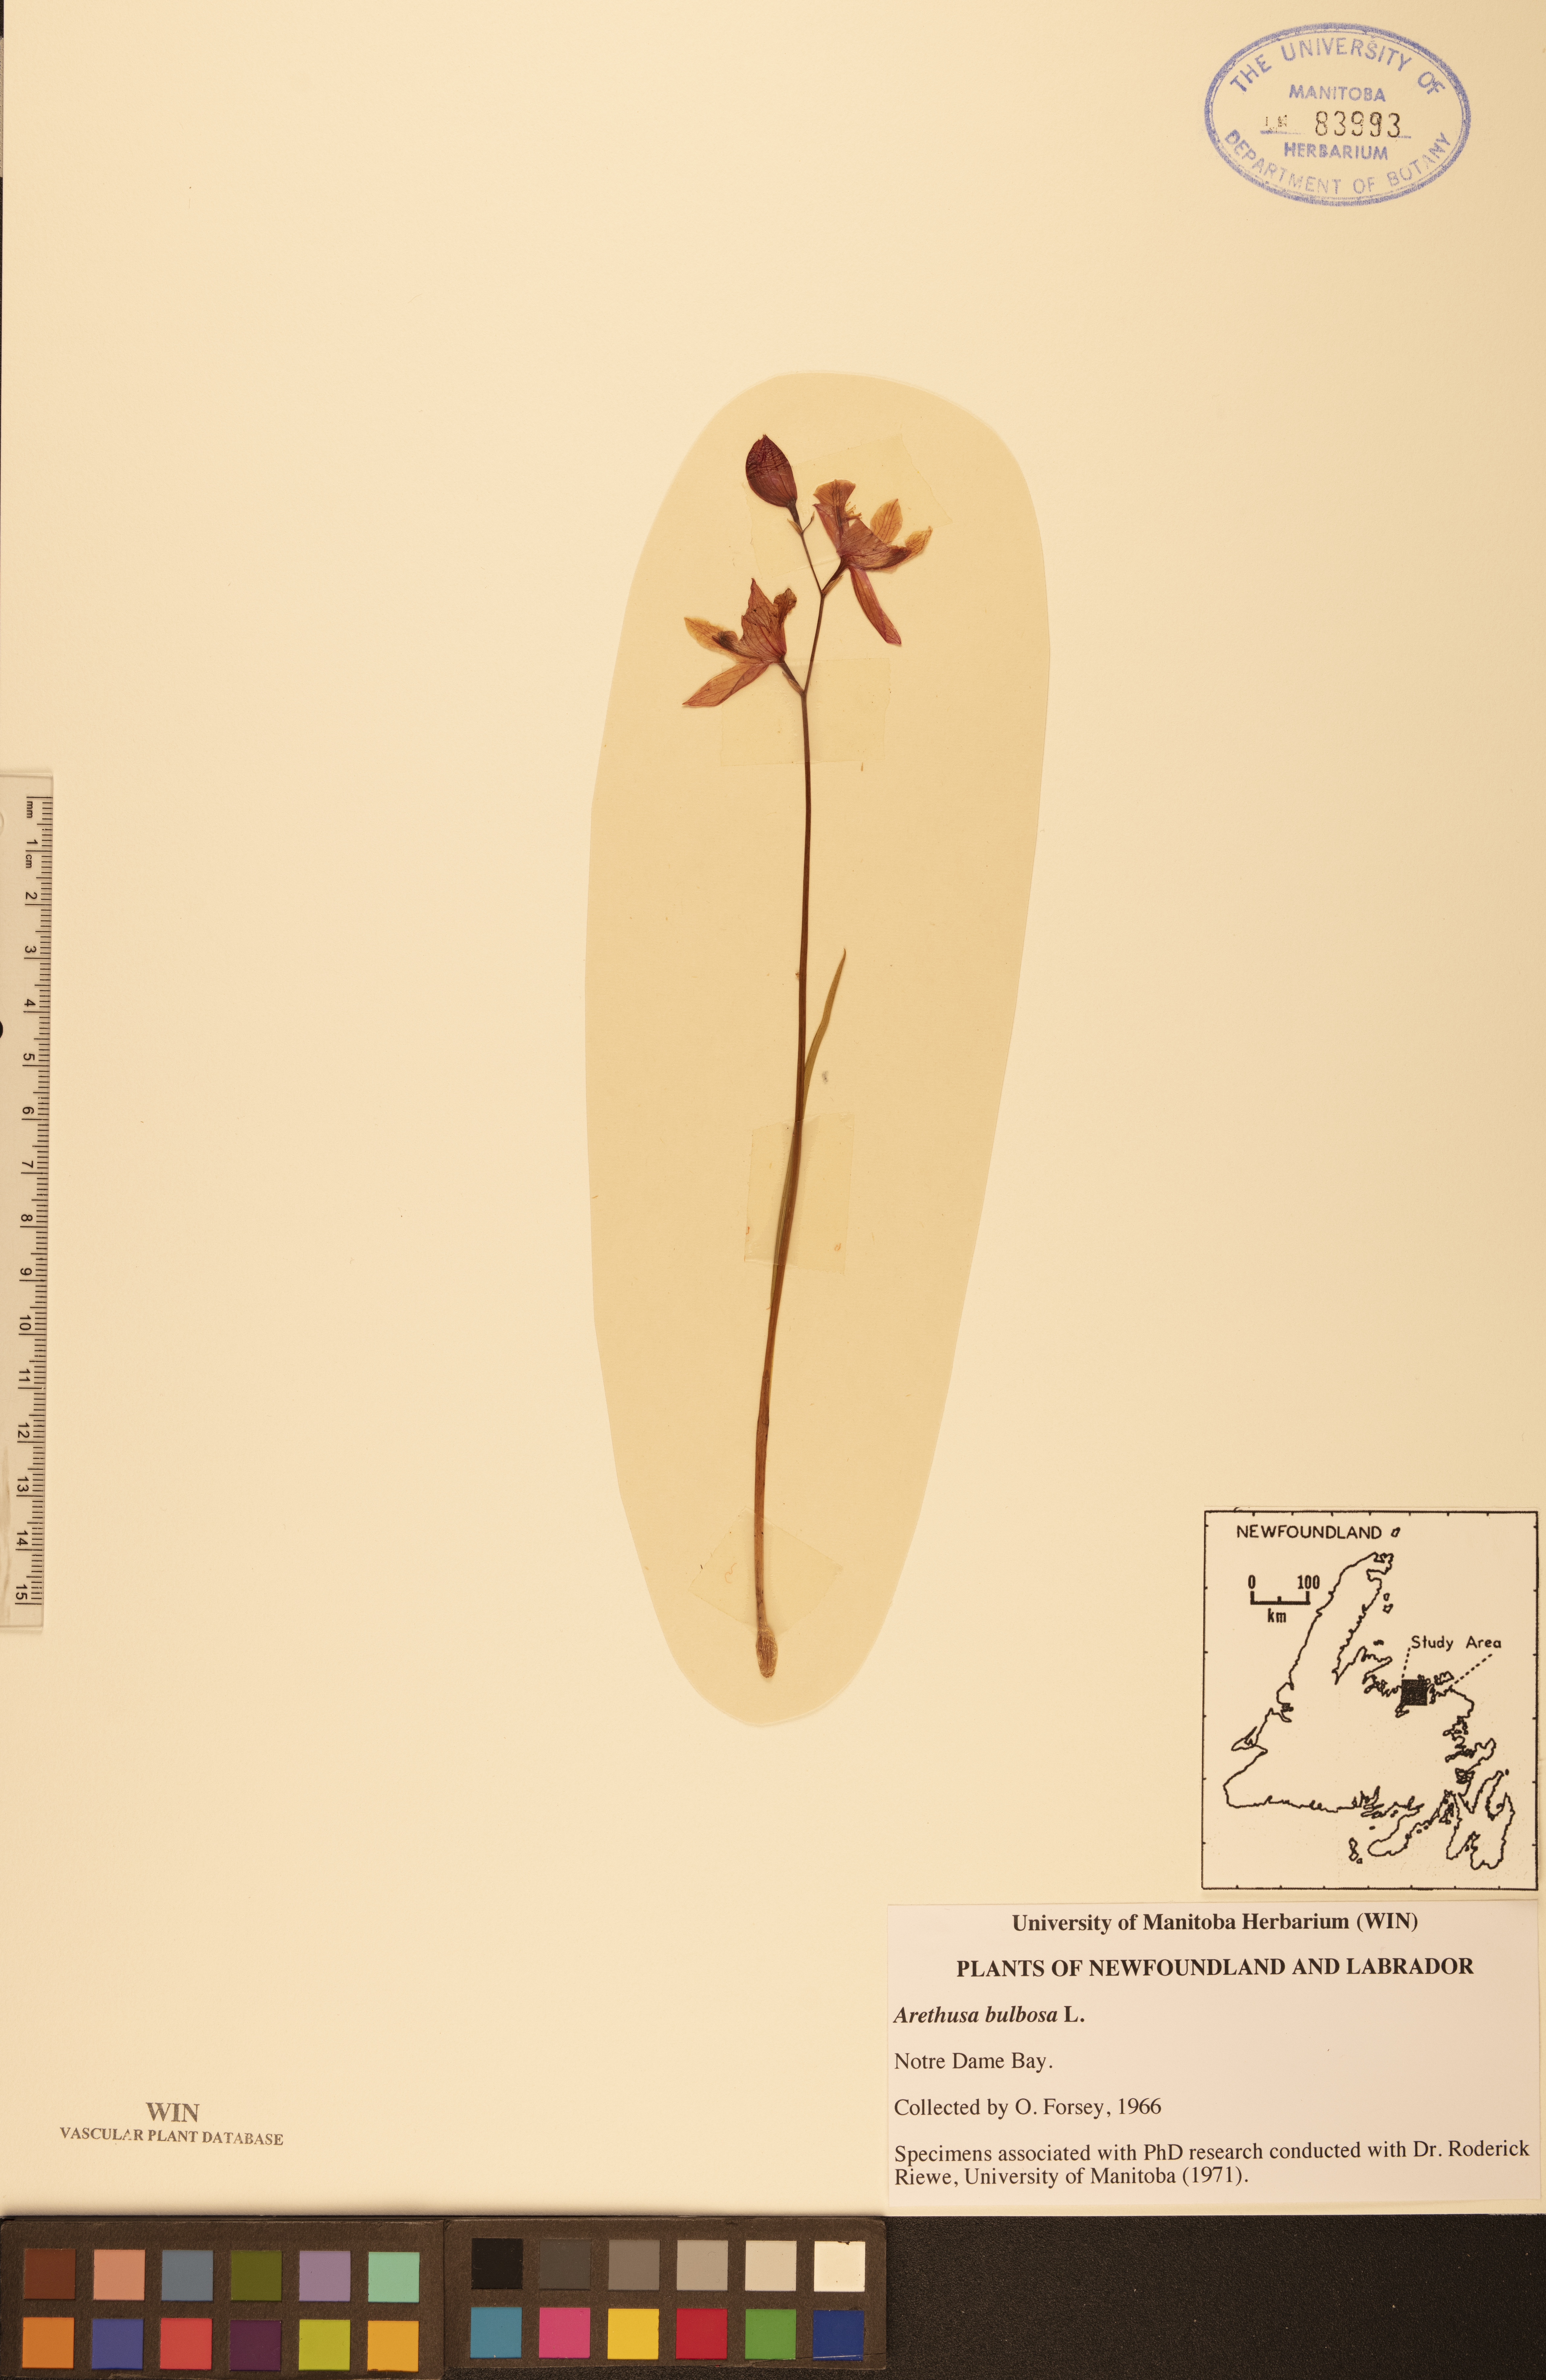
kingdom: Plantae
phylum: Tracheophyta
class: Liliopsida
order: Asparagales
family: Orchidaceae
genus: Arethusa
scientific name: Arethusa bulbosa
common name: Arethusa
